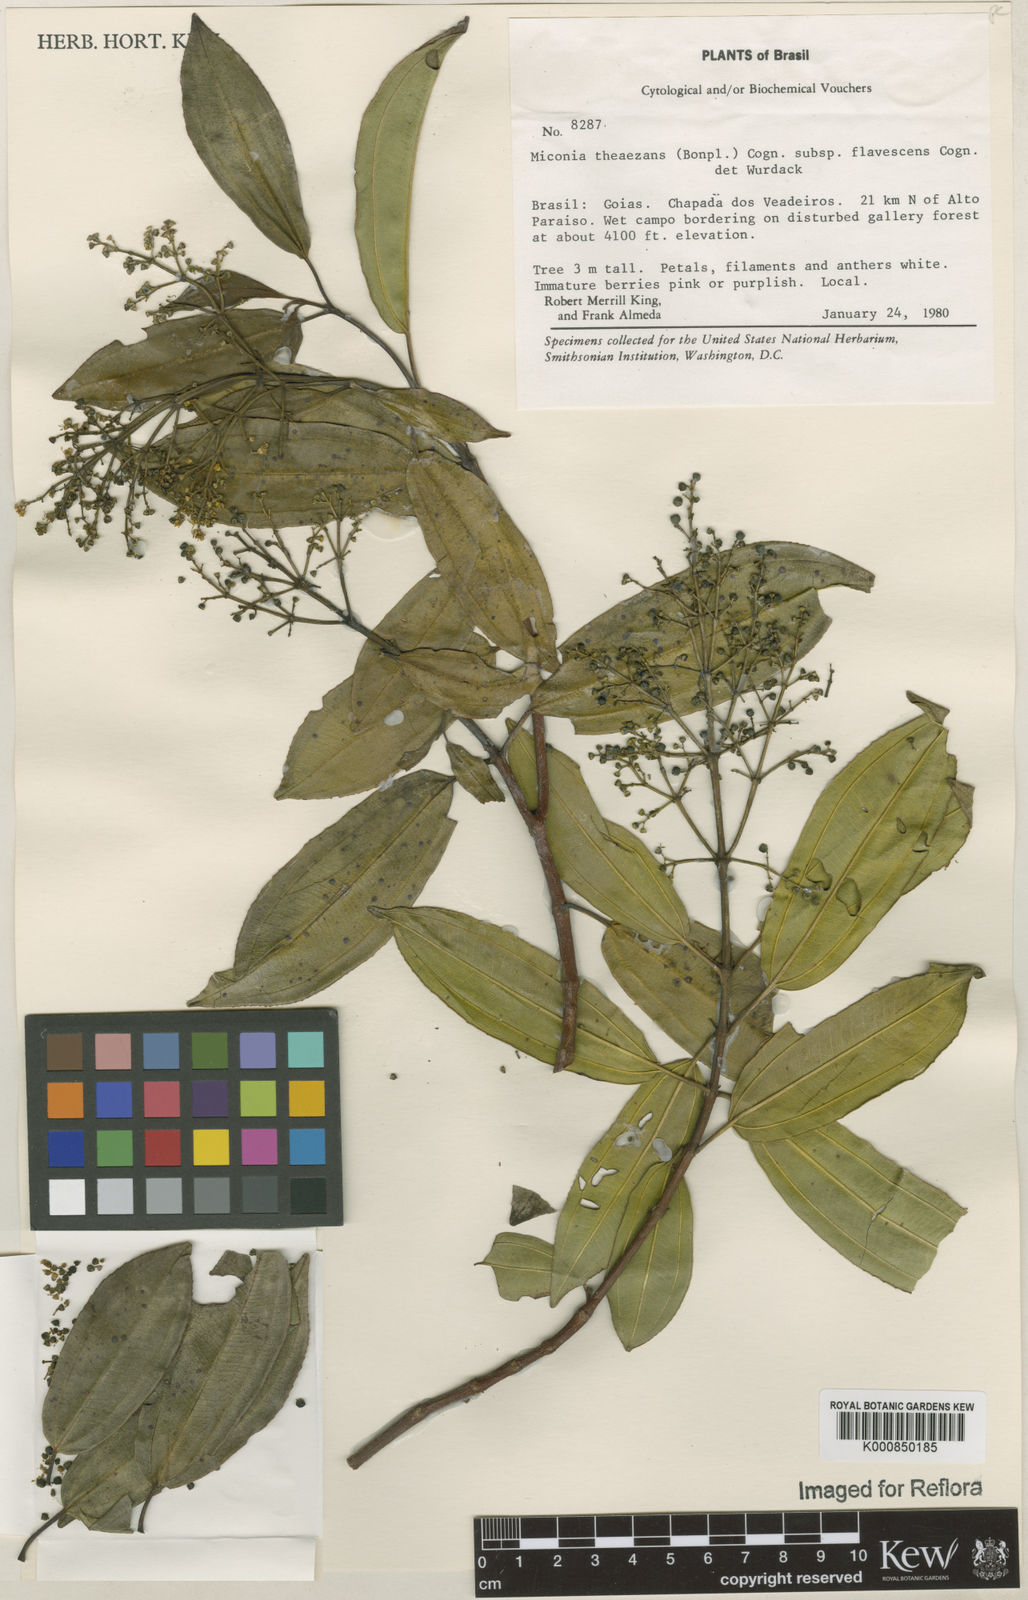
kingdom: Plantae
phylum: Tracheophyta
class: Magnoliopsida
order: Myrtales
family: Melastomataceae
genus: Miconia
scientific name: Miconia
